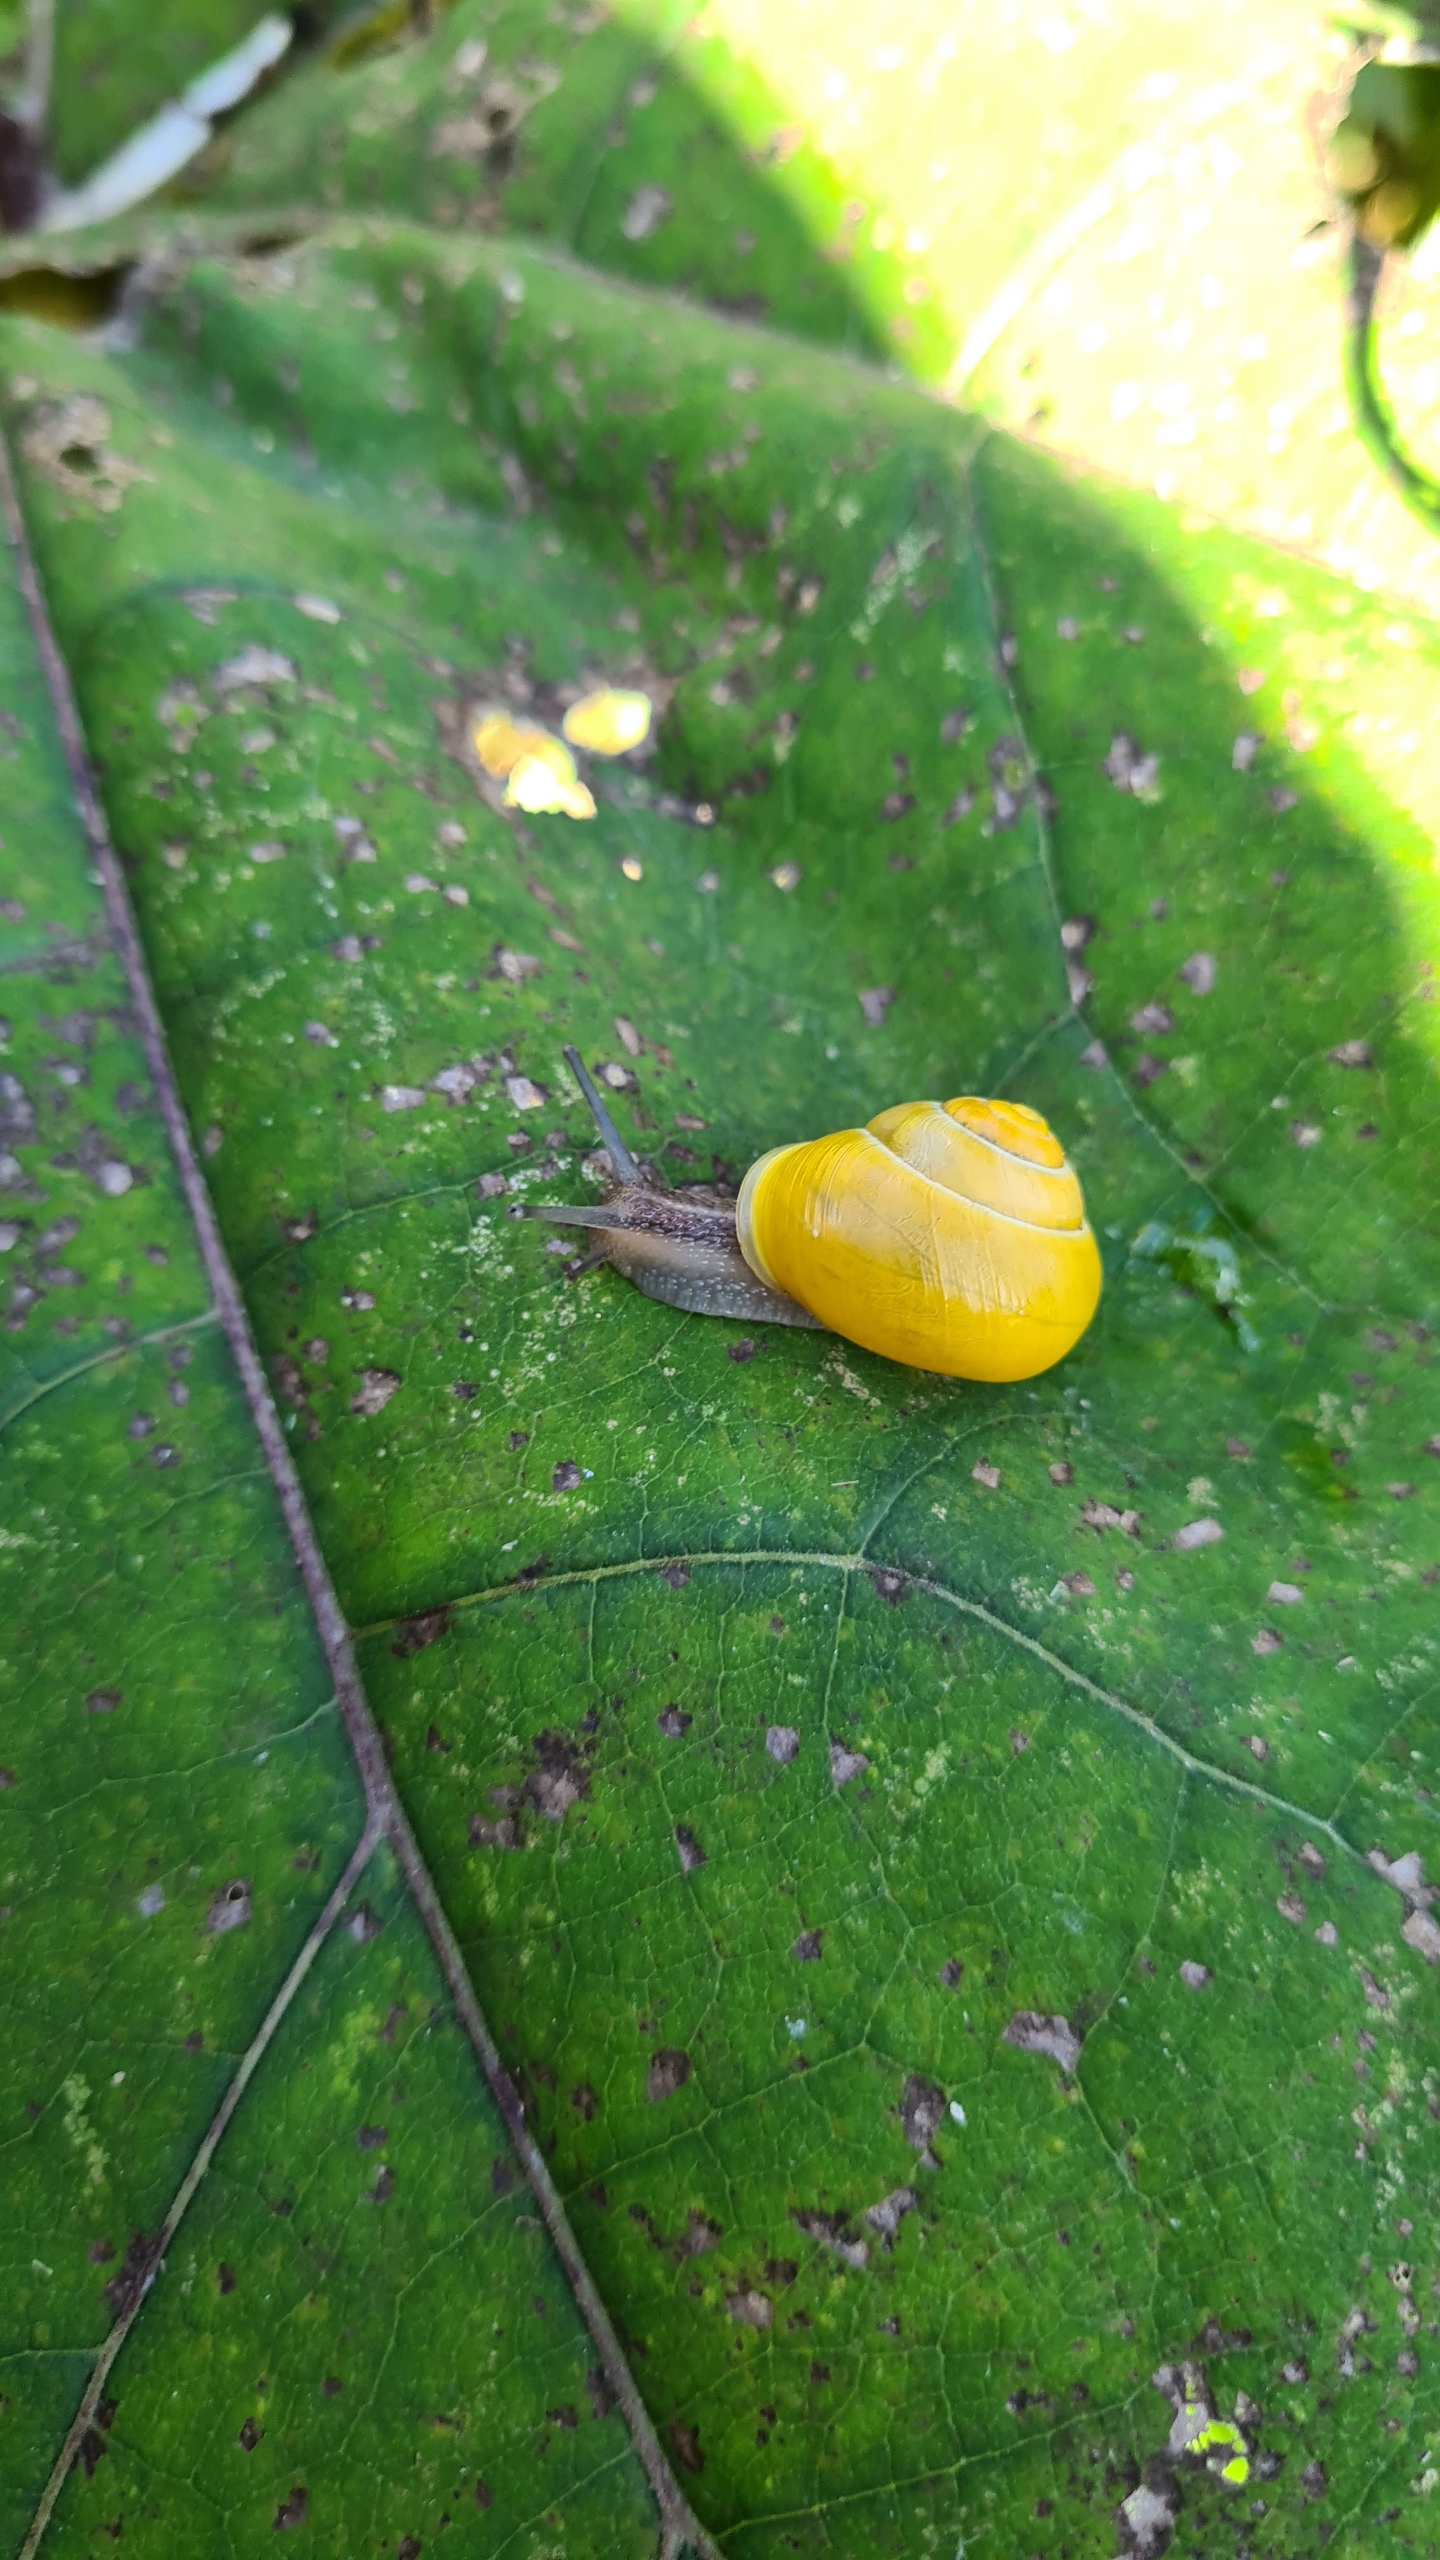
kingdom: Animalia
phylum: Mollusca
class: Gastropoda
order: Stylommatophora
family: Helicidae
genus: Cepaea
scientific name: Cepaea hortensis
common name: Havesnegl
